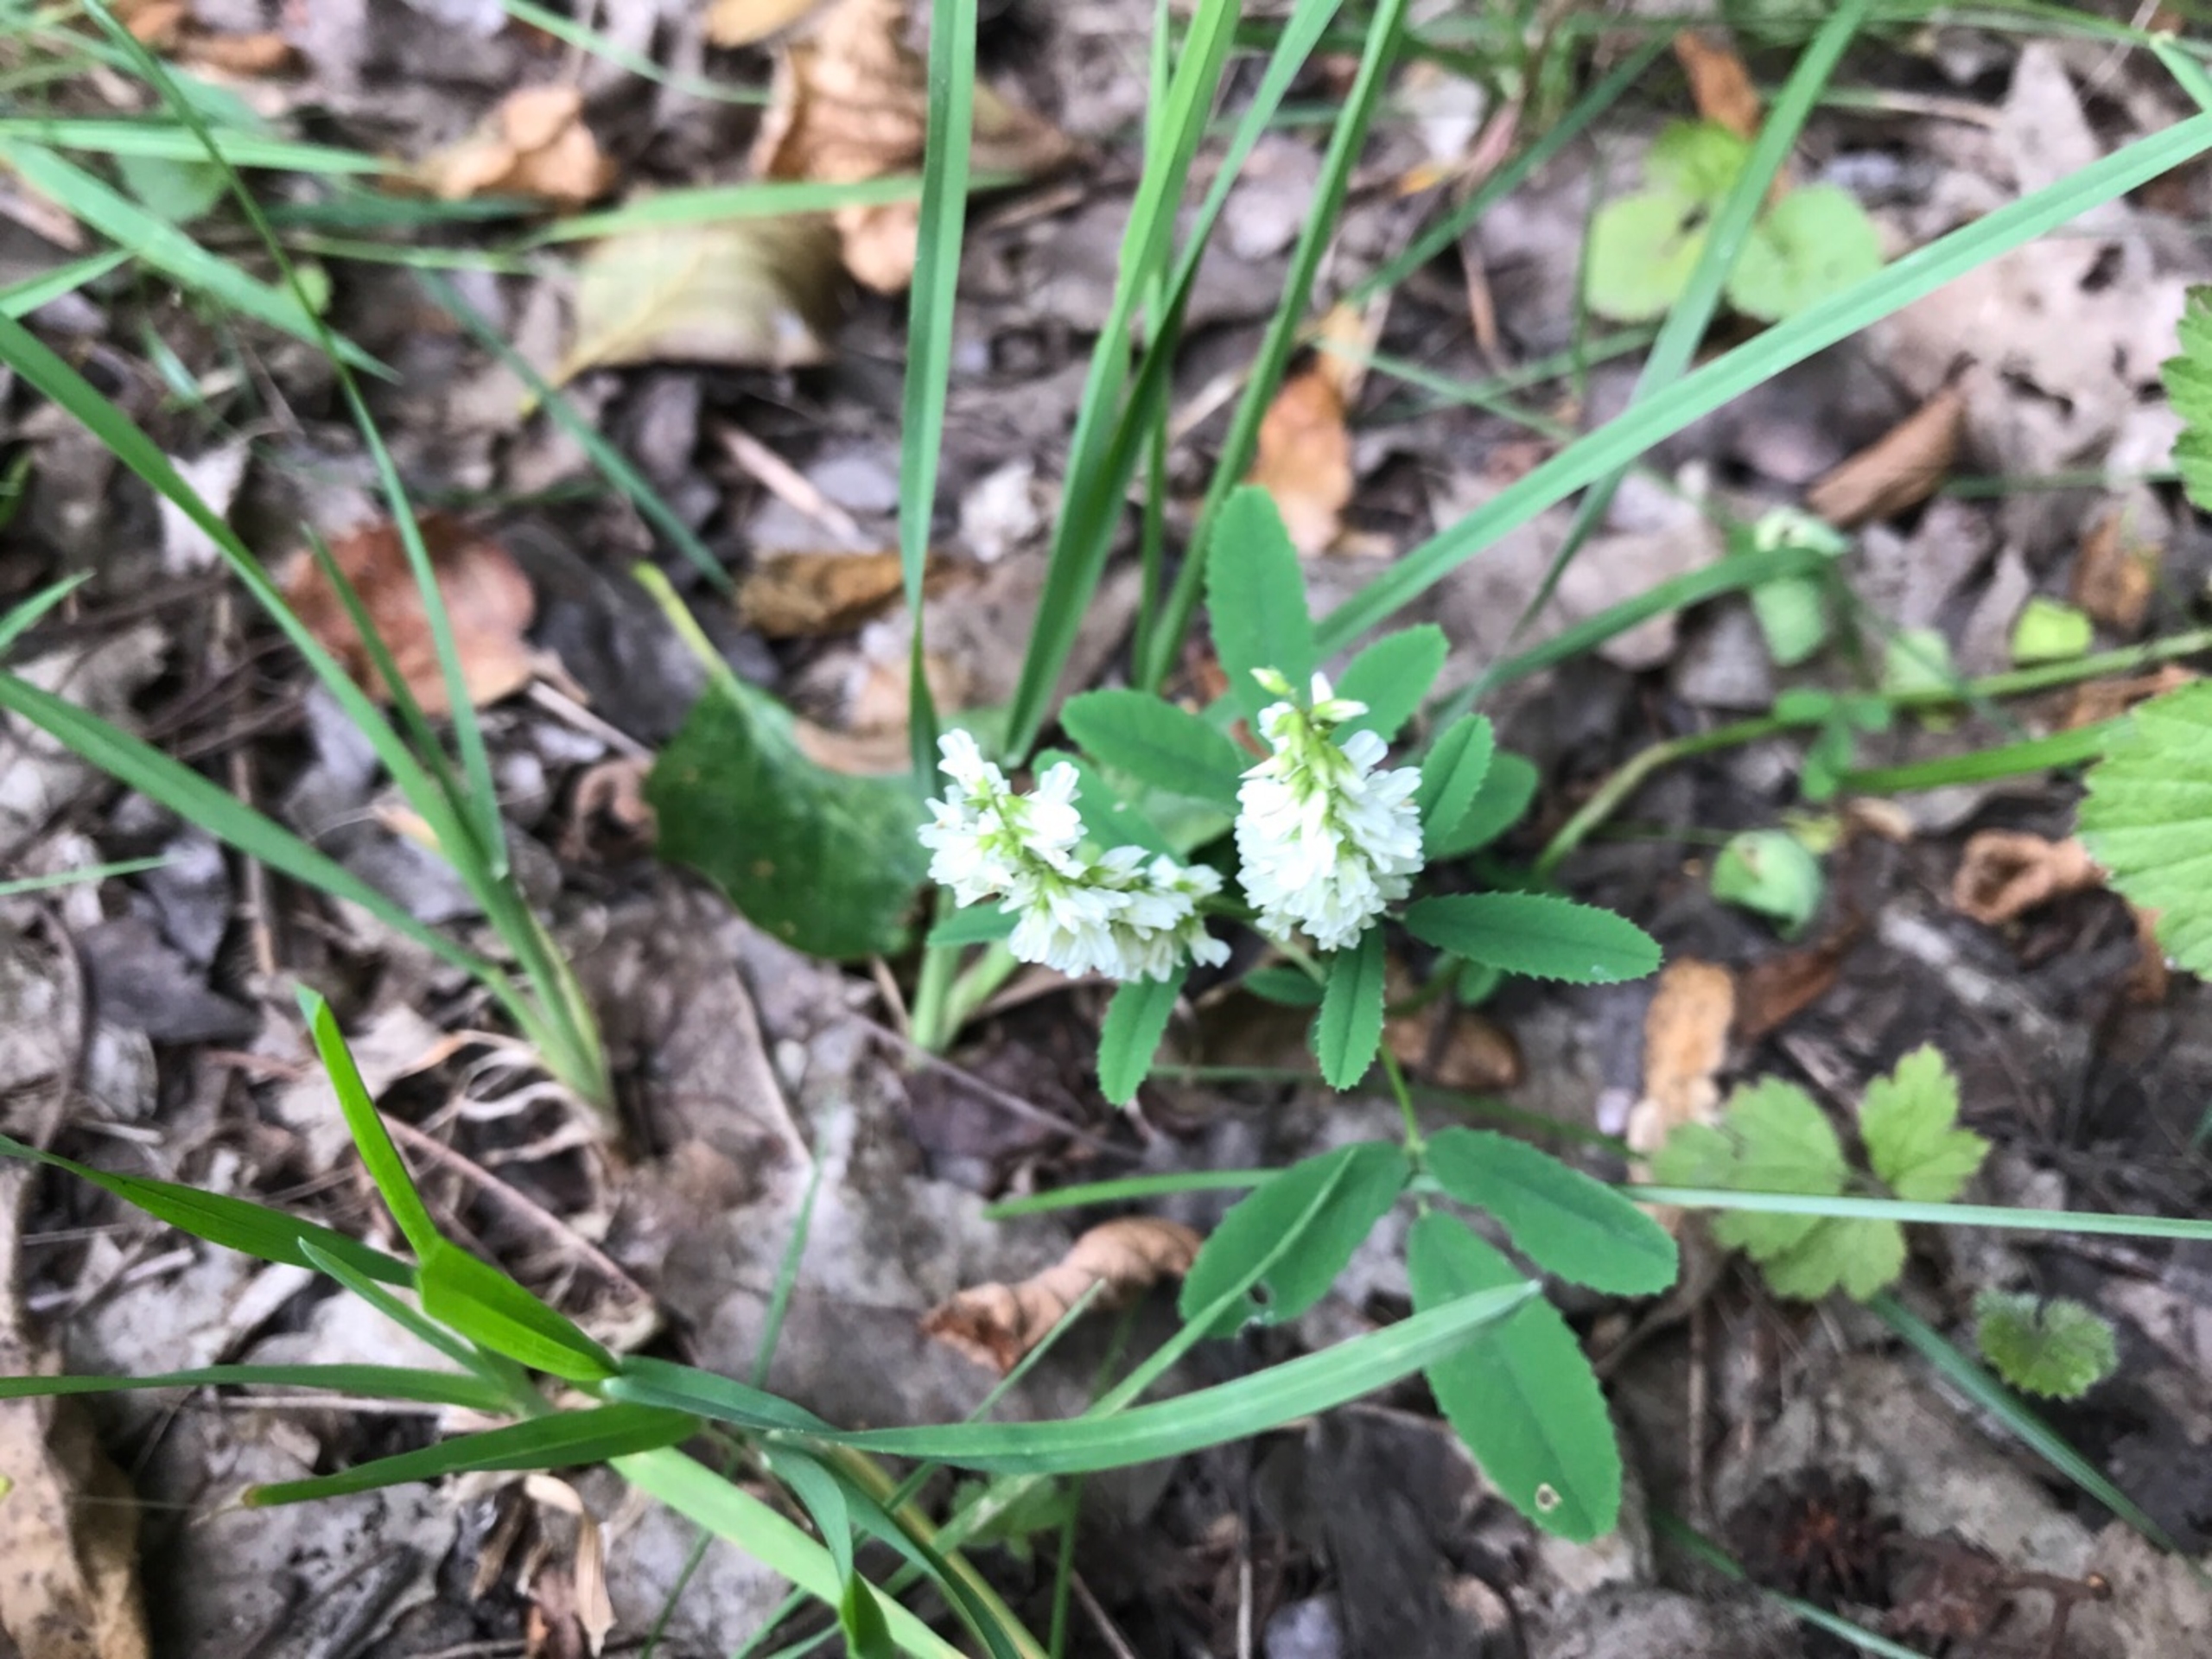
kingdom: Plantae
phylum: Tracheophyta
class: Magnoliopsida
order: Fabales
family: Fabaceae
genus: Melilotus
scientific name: Melilotus albus
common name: Hvid stenkløver
